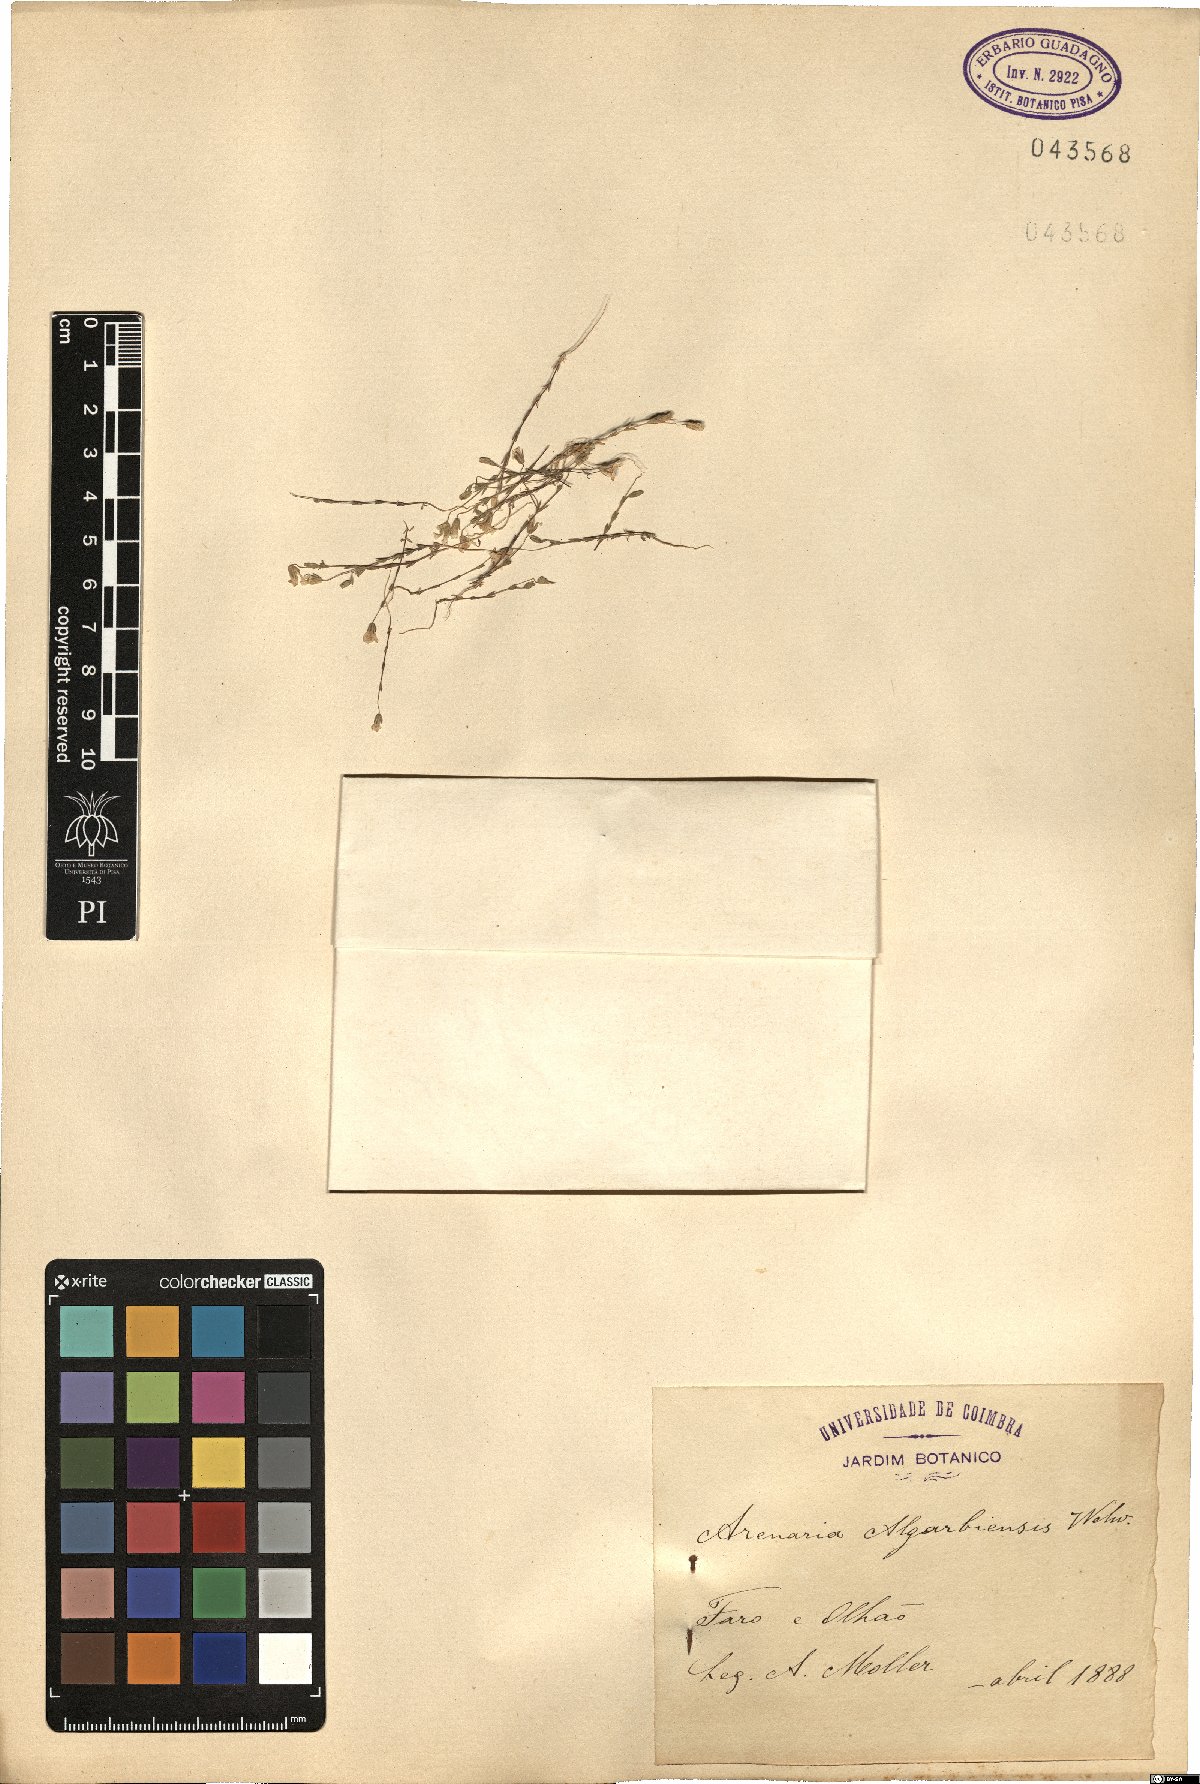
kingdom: Plantae
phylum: Tracheophyta
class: Magnoliopsida
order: Caryophyllales
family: Caryophyllaceae
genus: Arenaria
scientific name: Arenaria algarbiensis
